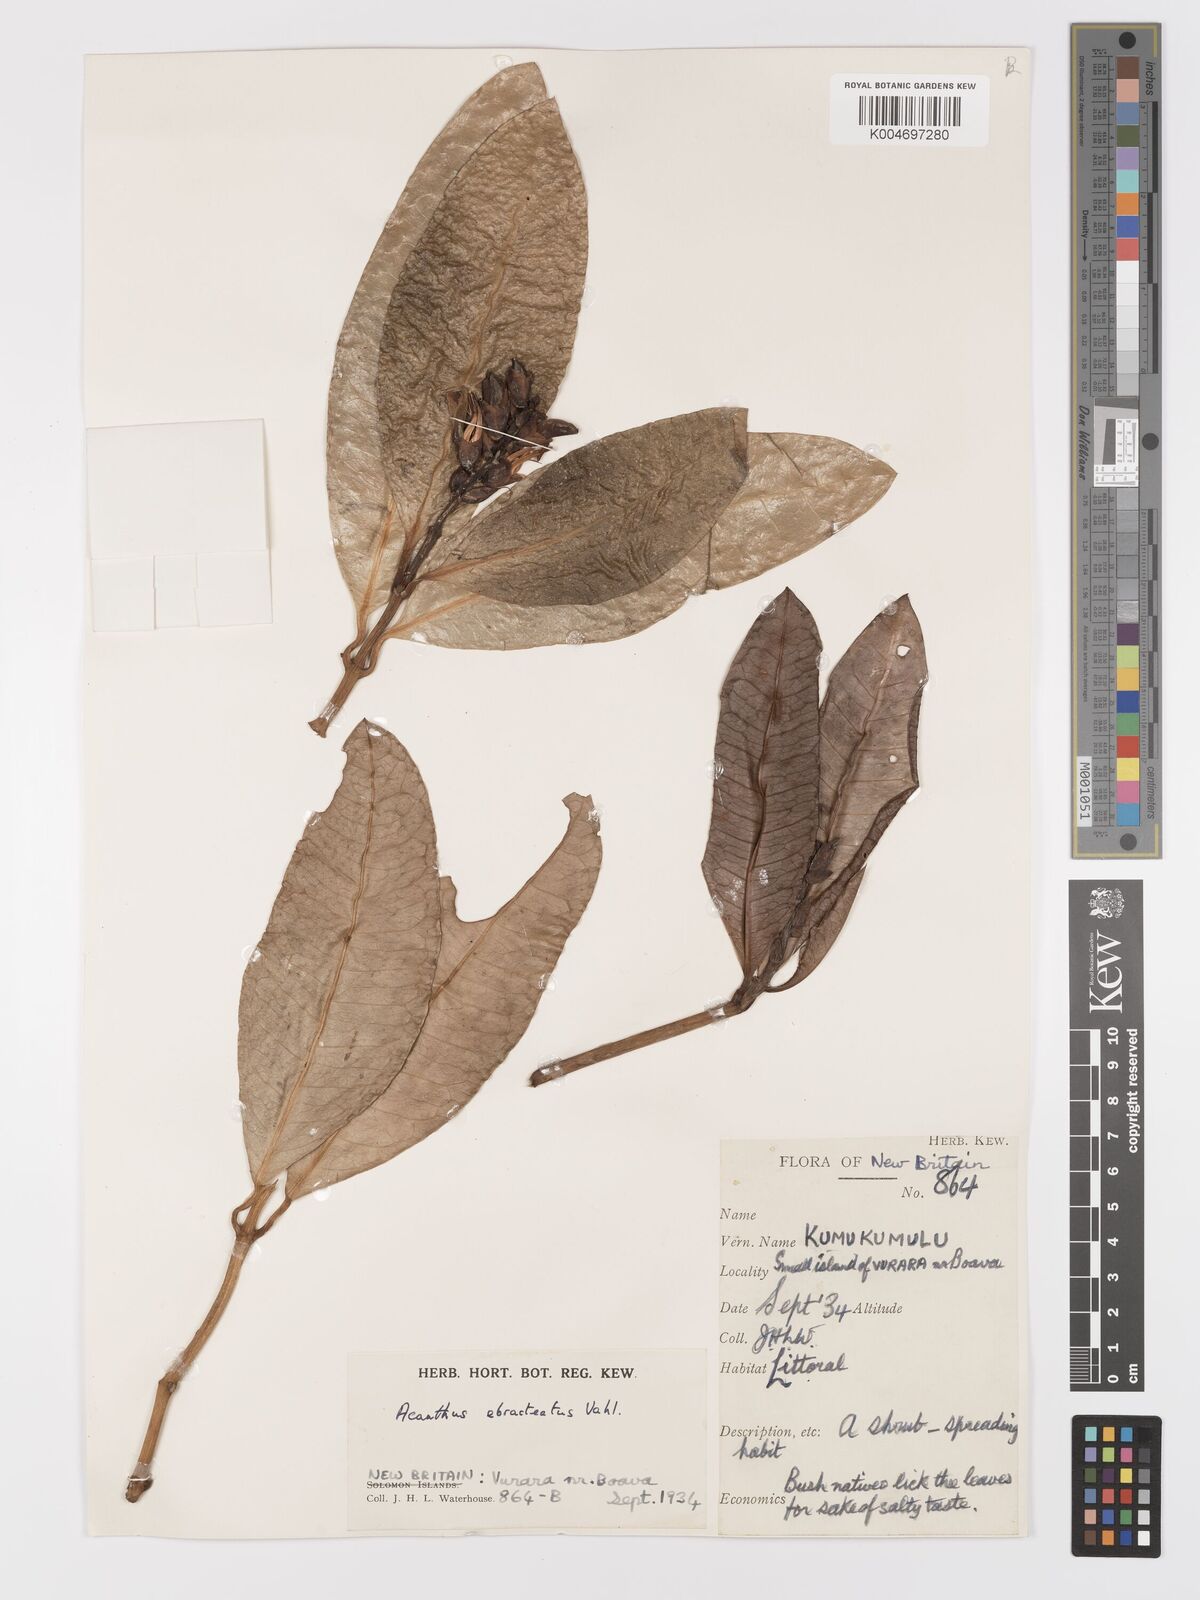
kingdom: Plantae
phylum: Tracheophyta
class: Magnoliopsida
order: Lamiales
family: Acanthaceae
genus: Acanthus
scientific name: Acanthus ebracteatus
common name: Acanthus
